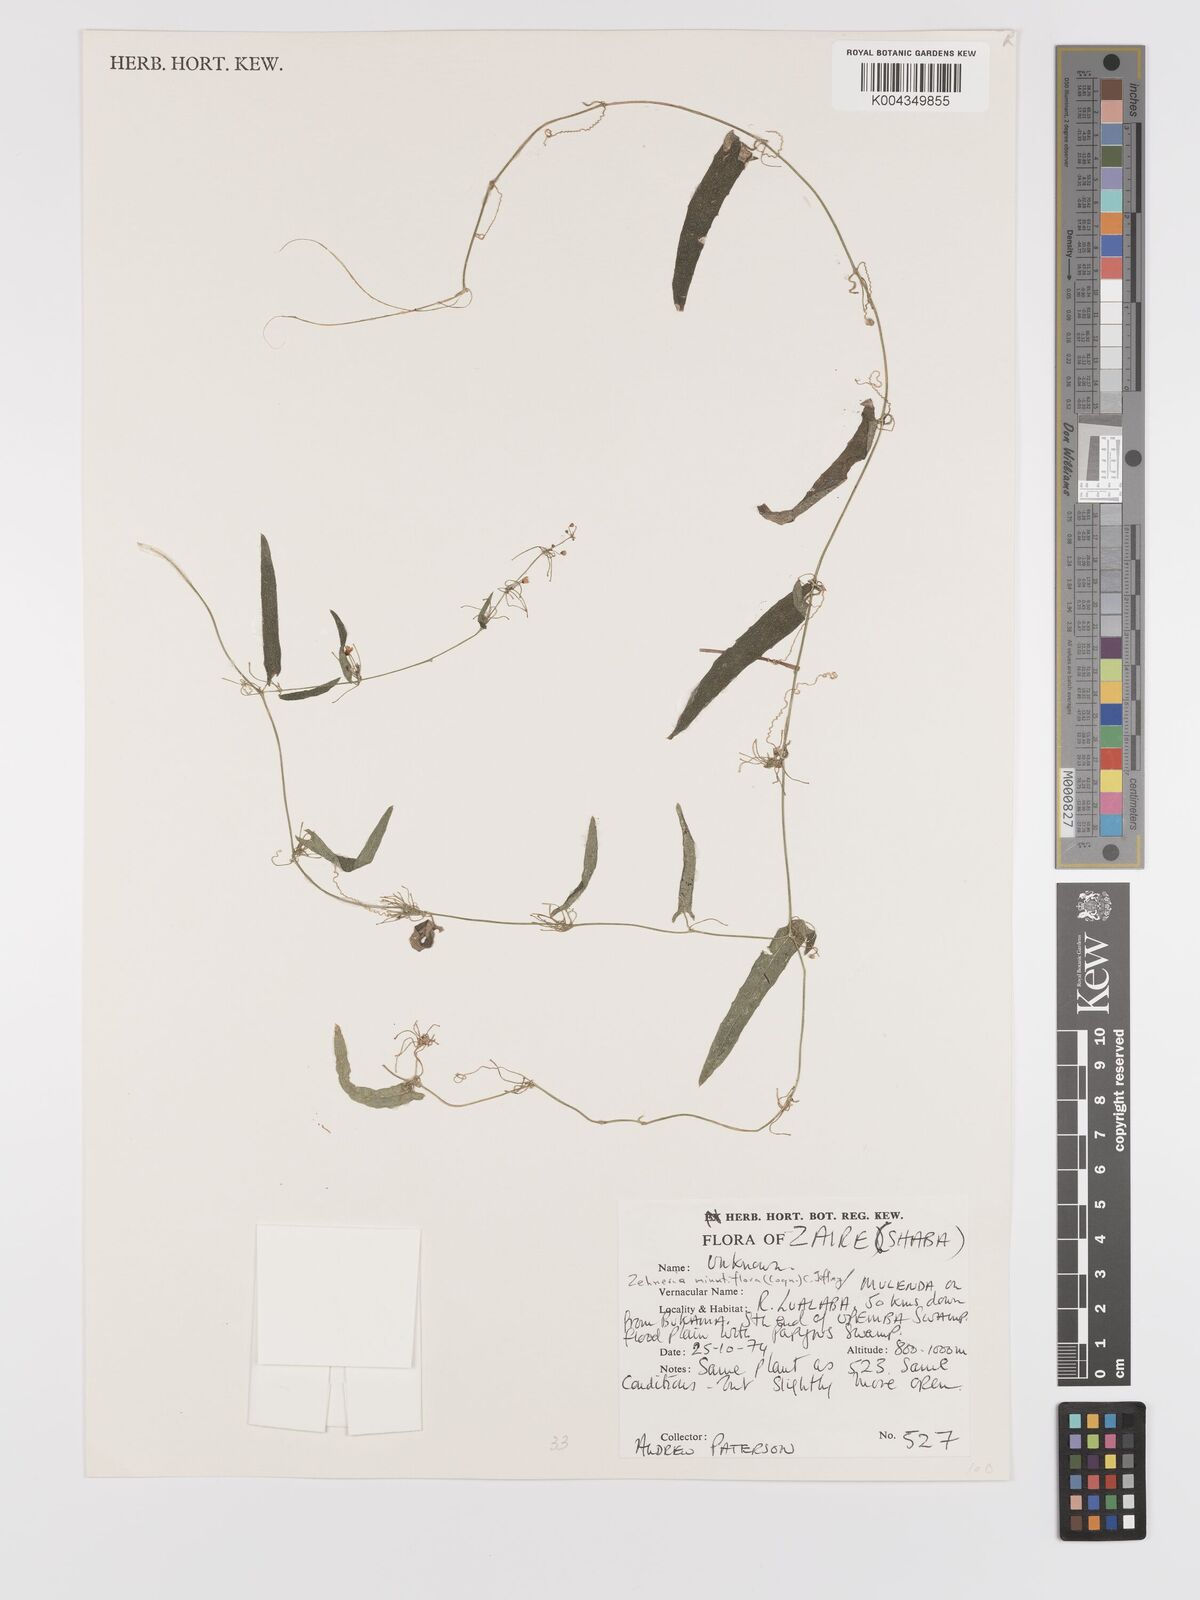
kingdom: Plantae
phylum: Tracheophyta
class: Magnoliopsida
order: Cucurbitales
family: Cucurbitaceae
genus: Zehneria
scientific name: Zehneria minutiflora
